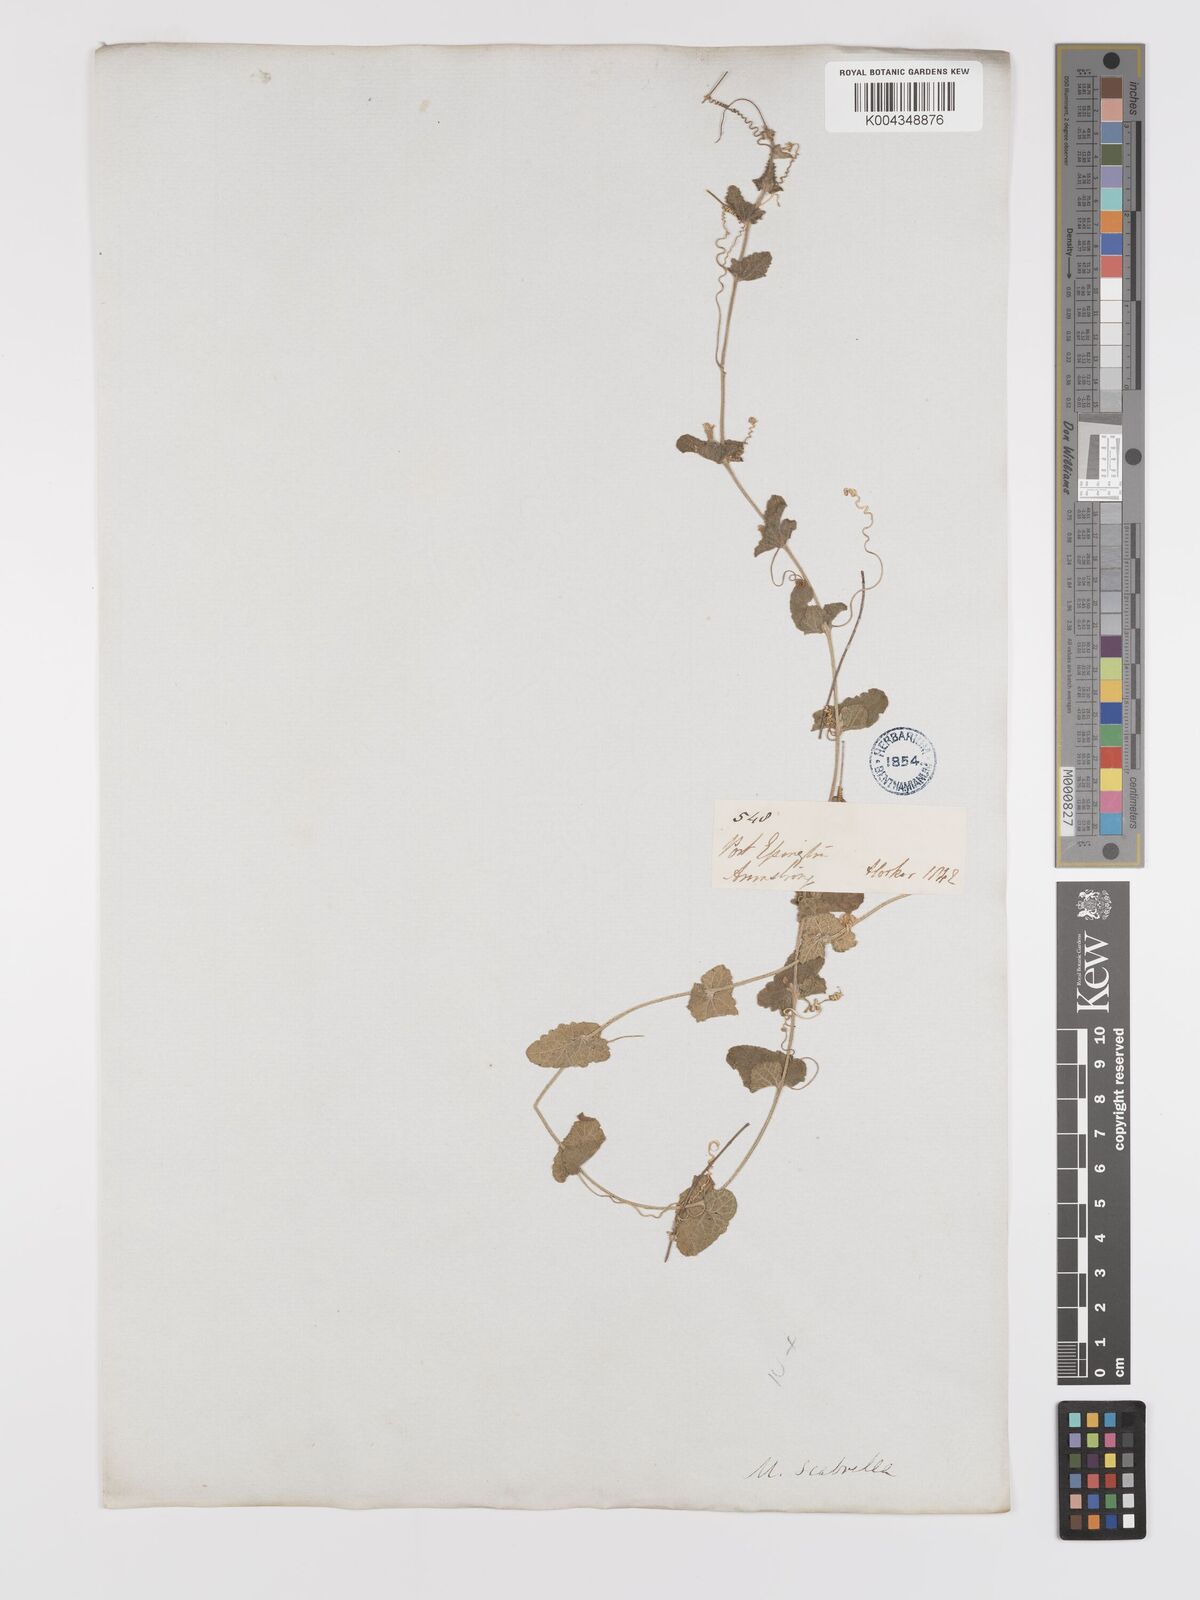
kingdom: Animalia
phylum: Arthropoda
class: Insecta
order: Lepidoptera
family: Crambidae
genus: Mukia
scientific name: Mukia
